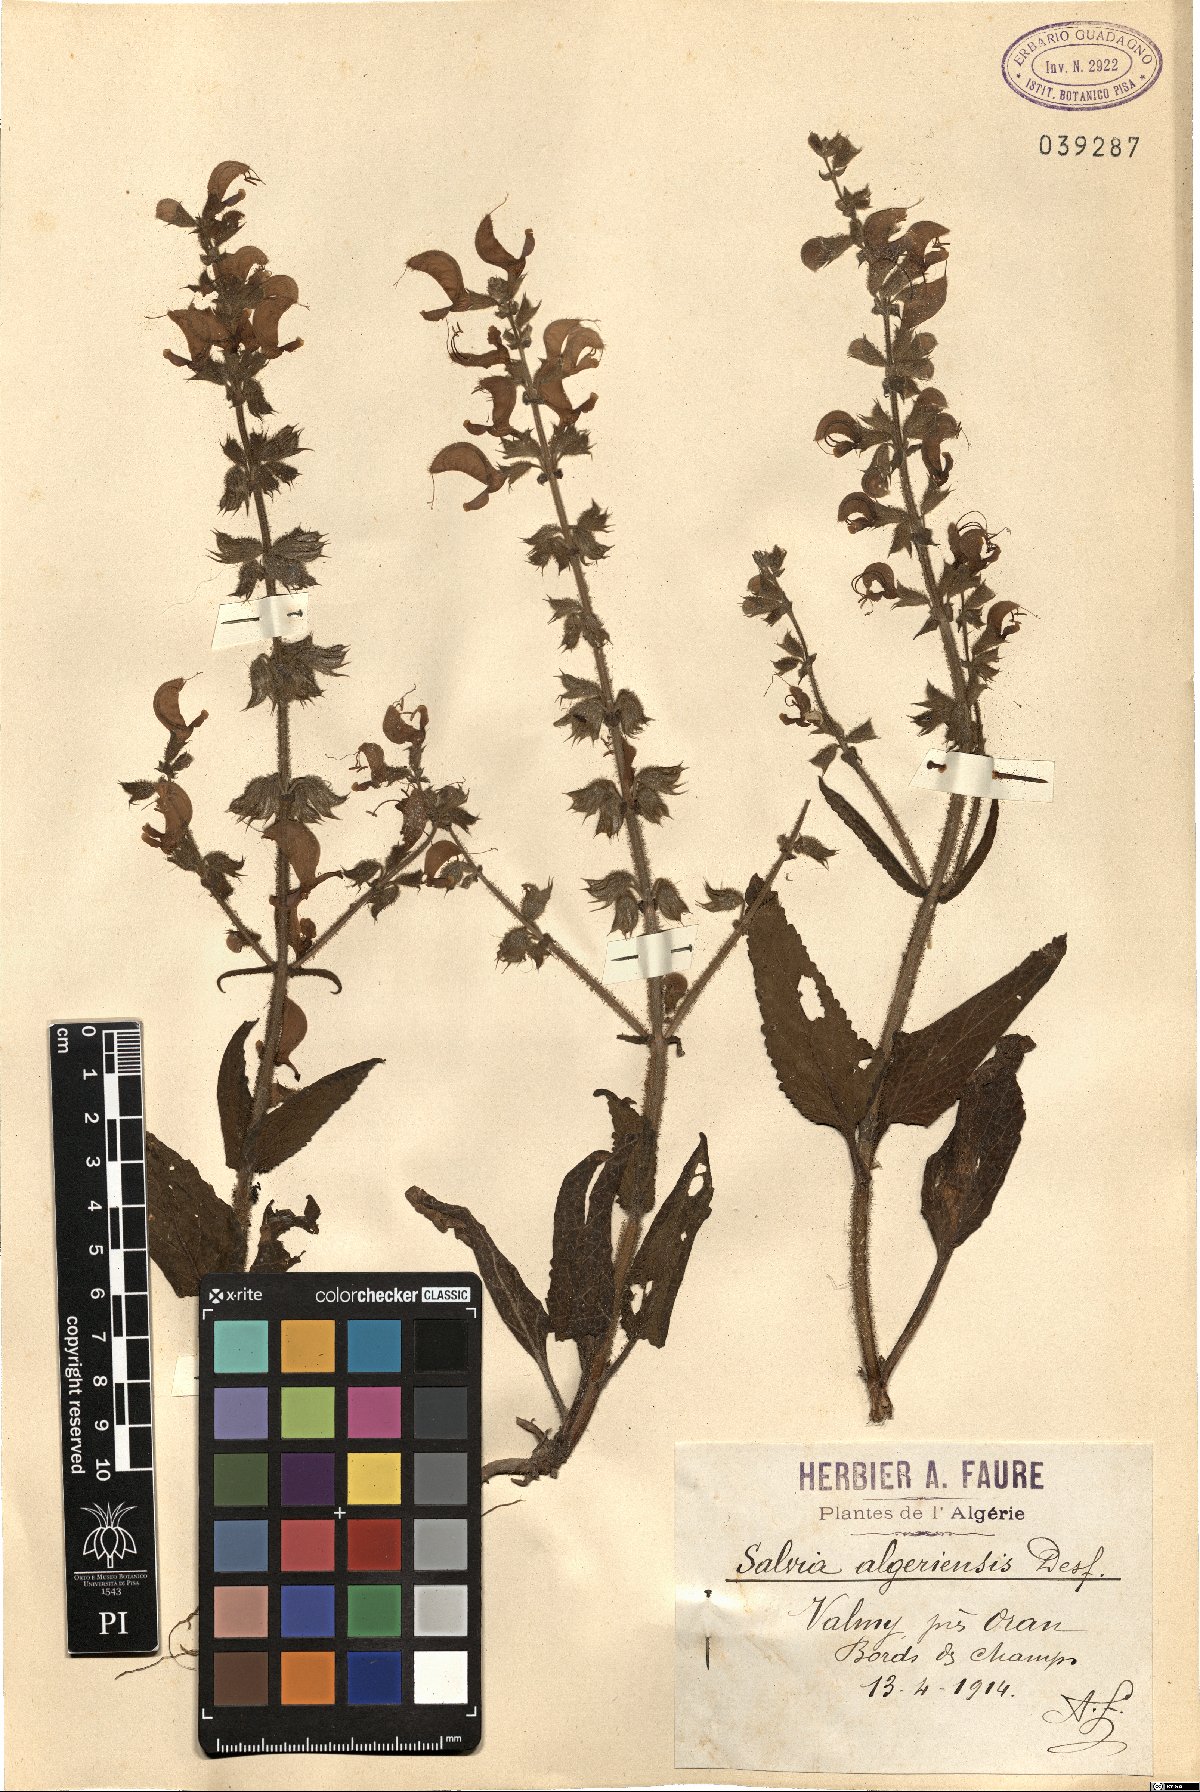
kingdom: Plantae
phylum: Tracheophyta
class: Magnoliopsida
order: Lamiales
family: Lamiaceae
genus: Salvia
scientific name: Salvia algeriensis
